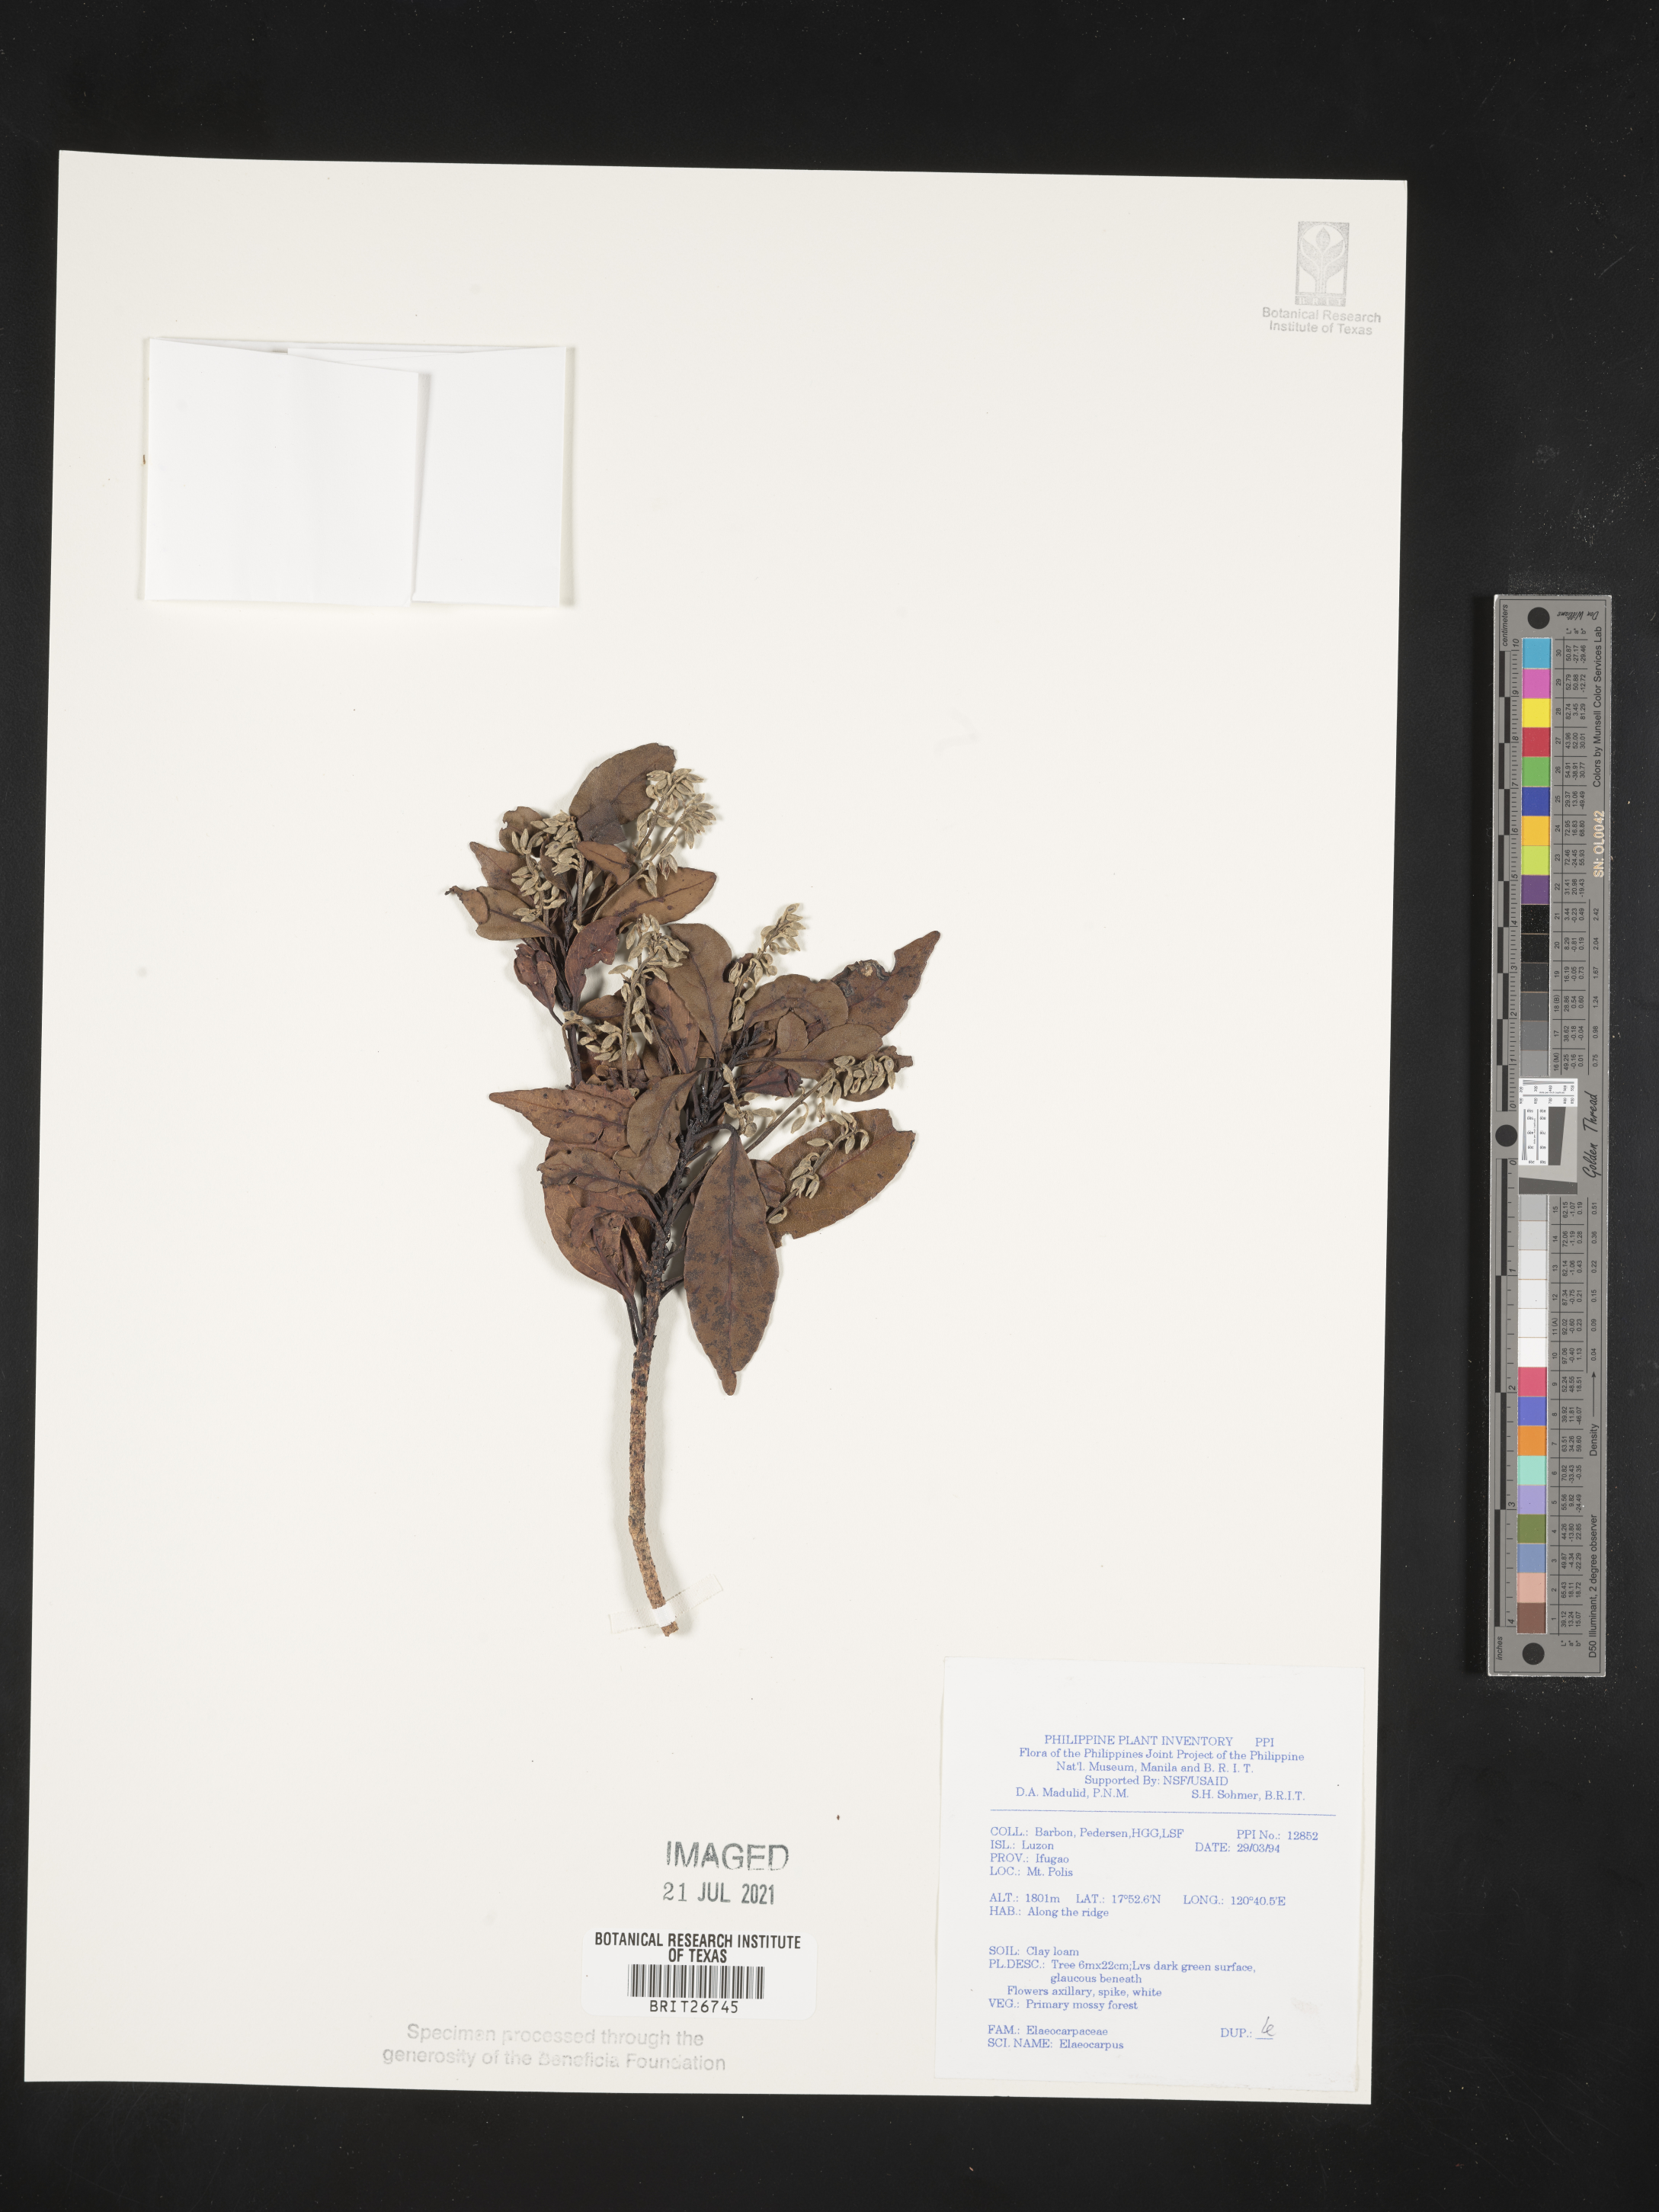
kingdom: Plantae
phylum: Tracheophyta
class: Magnoliopsida
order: Oxalidales
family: Elaeocarpaceae
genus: Elaeocarpus
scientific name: Elaeocarpus
